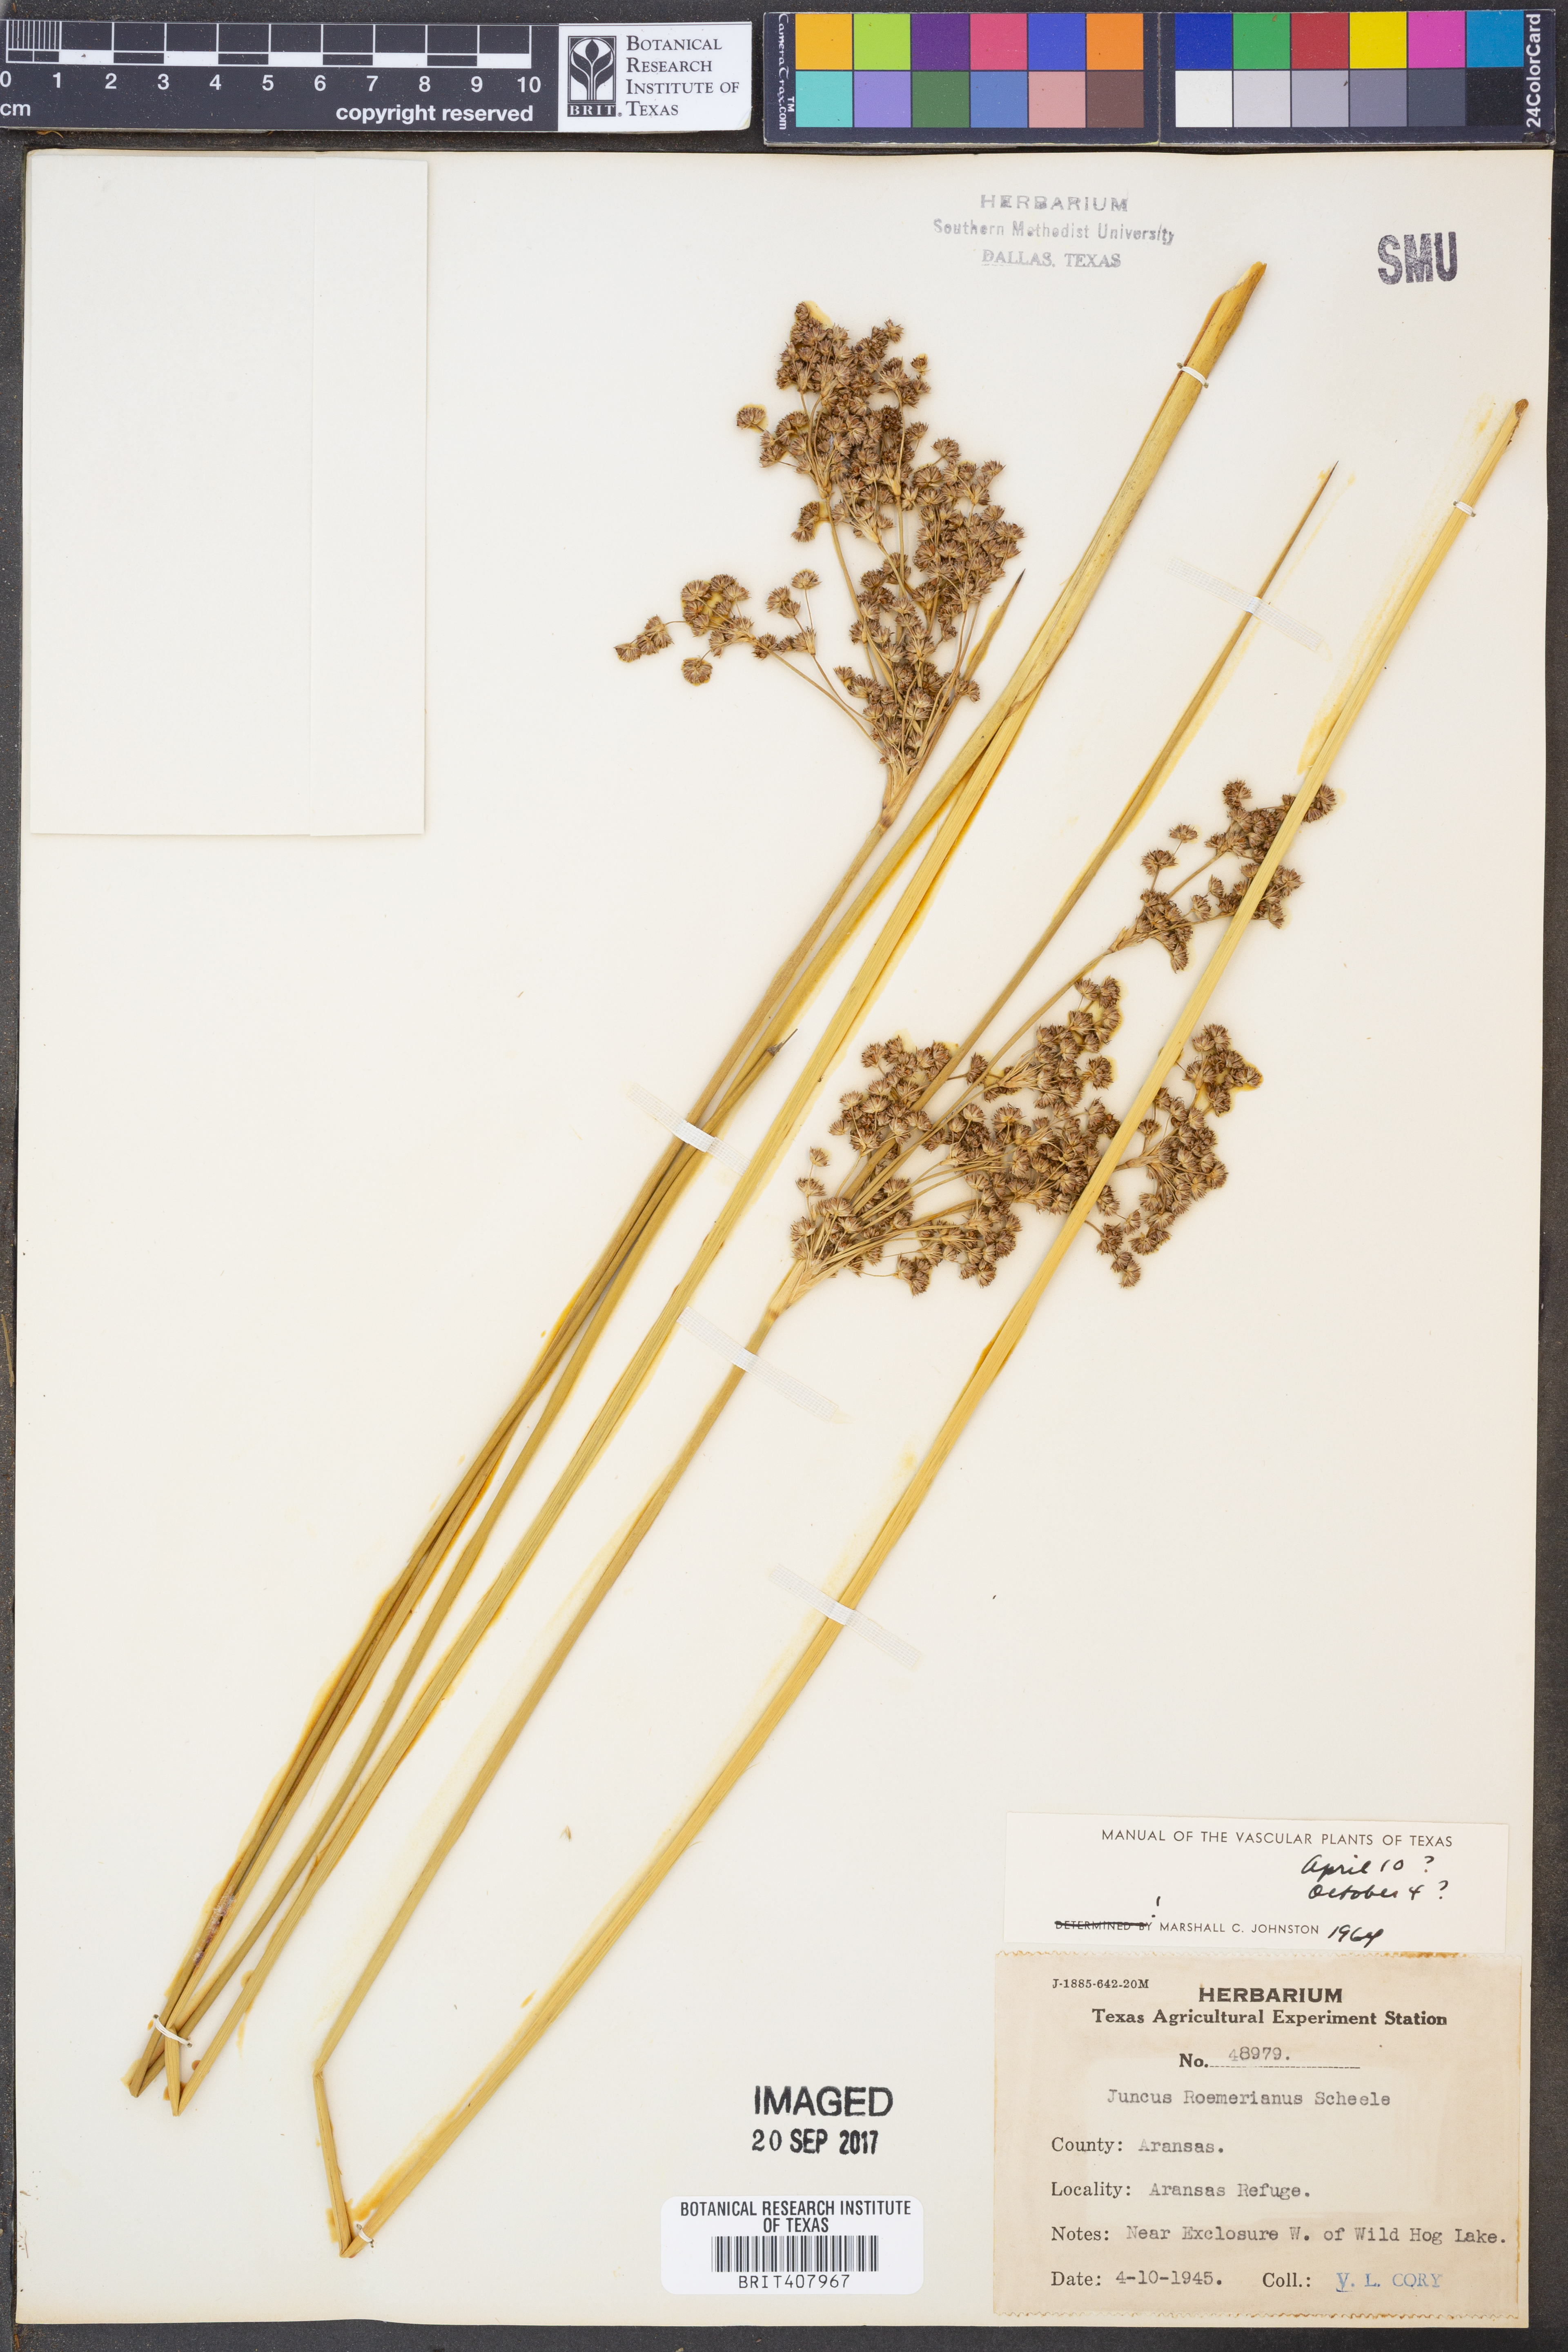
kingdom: Plantae
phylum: Tracheophyta
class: Liliopsida
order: Poales
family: Juncaceae
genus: Juncus
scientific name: Juncus roemerianus
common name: Roemer's rush
